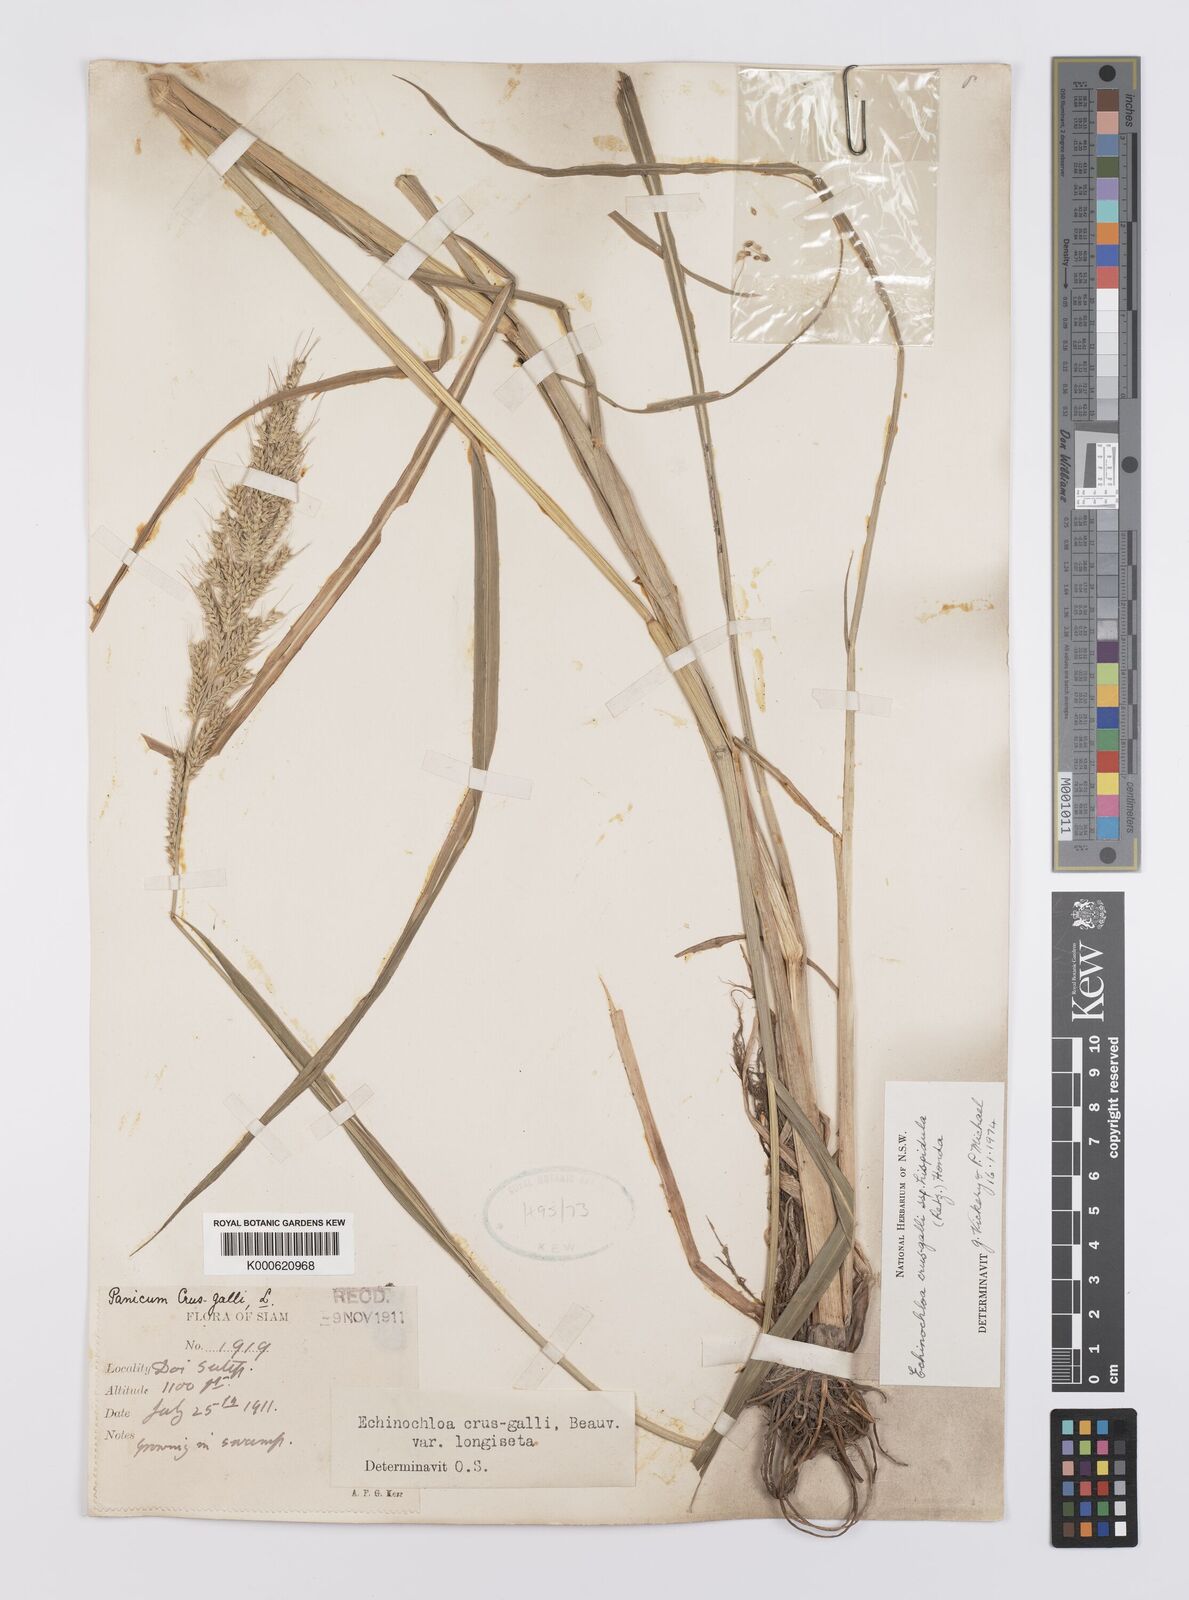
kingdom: Plantae
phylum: Tracheophyta
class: Liliopsida
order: Poales
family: Poaceae
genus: Echinochloa
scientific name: Echinochloa crus-galli
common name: Cockspur
